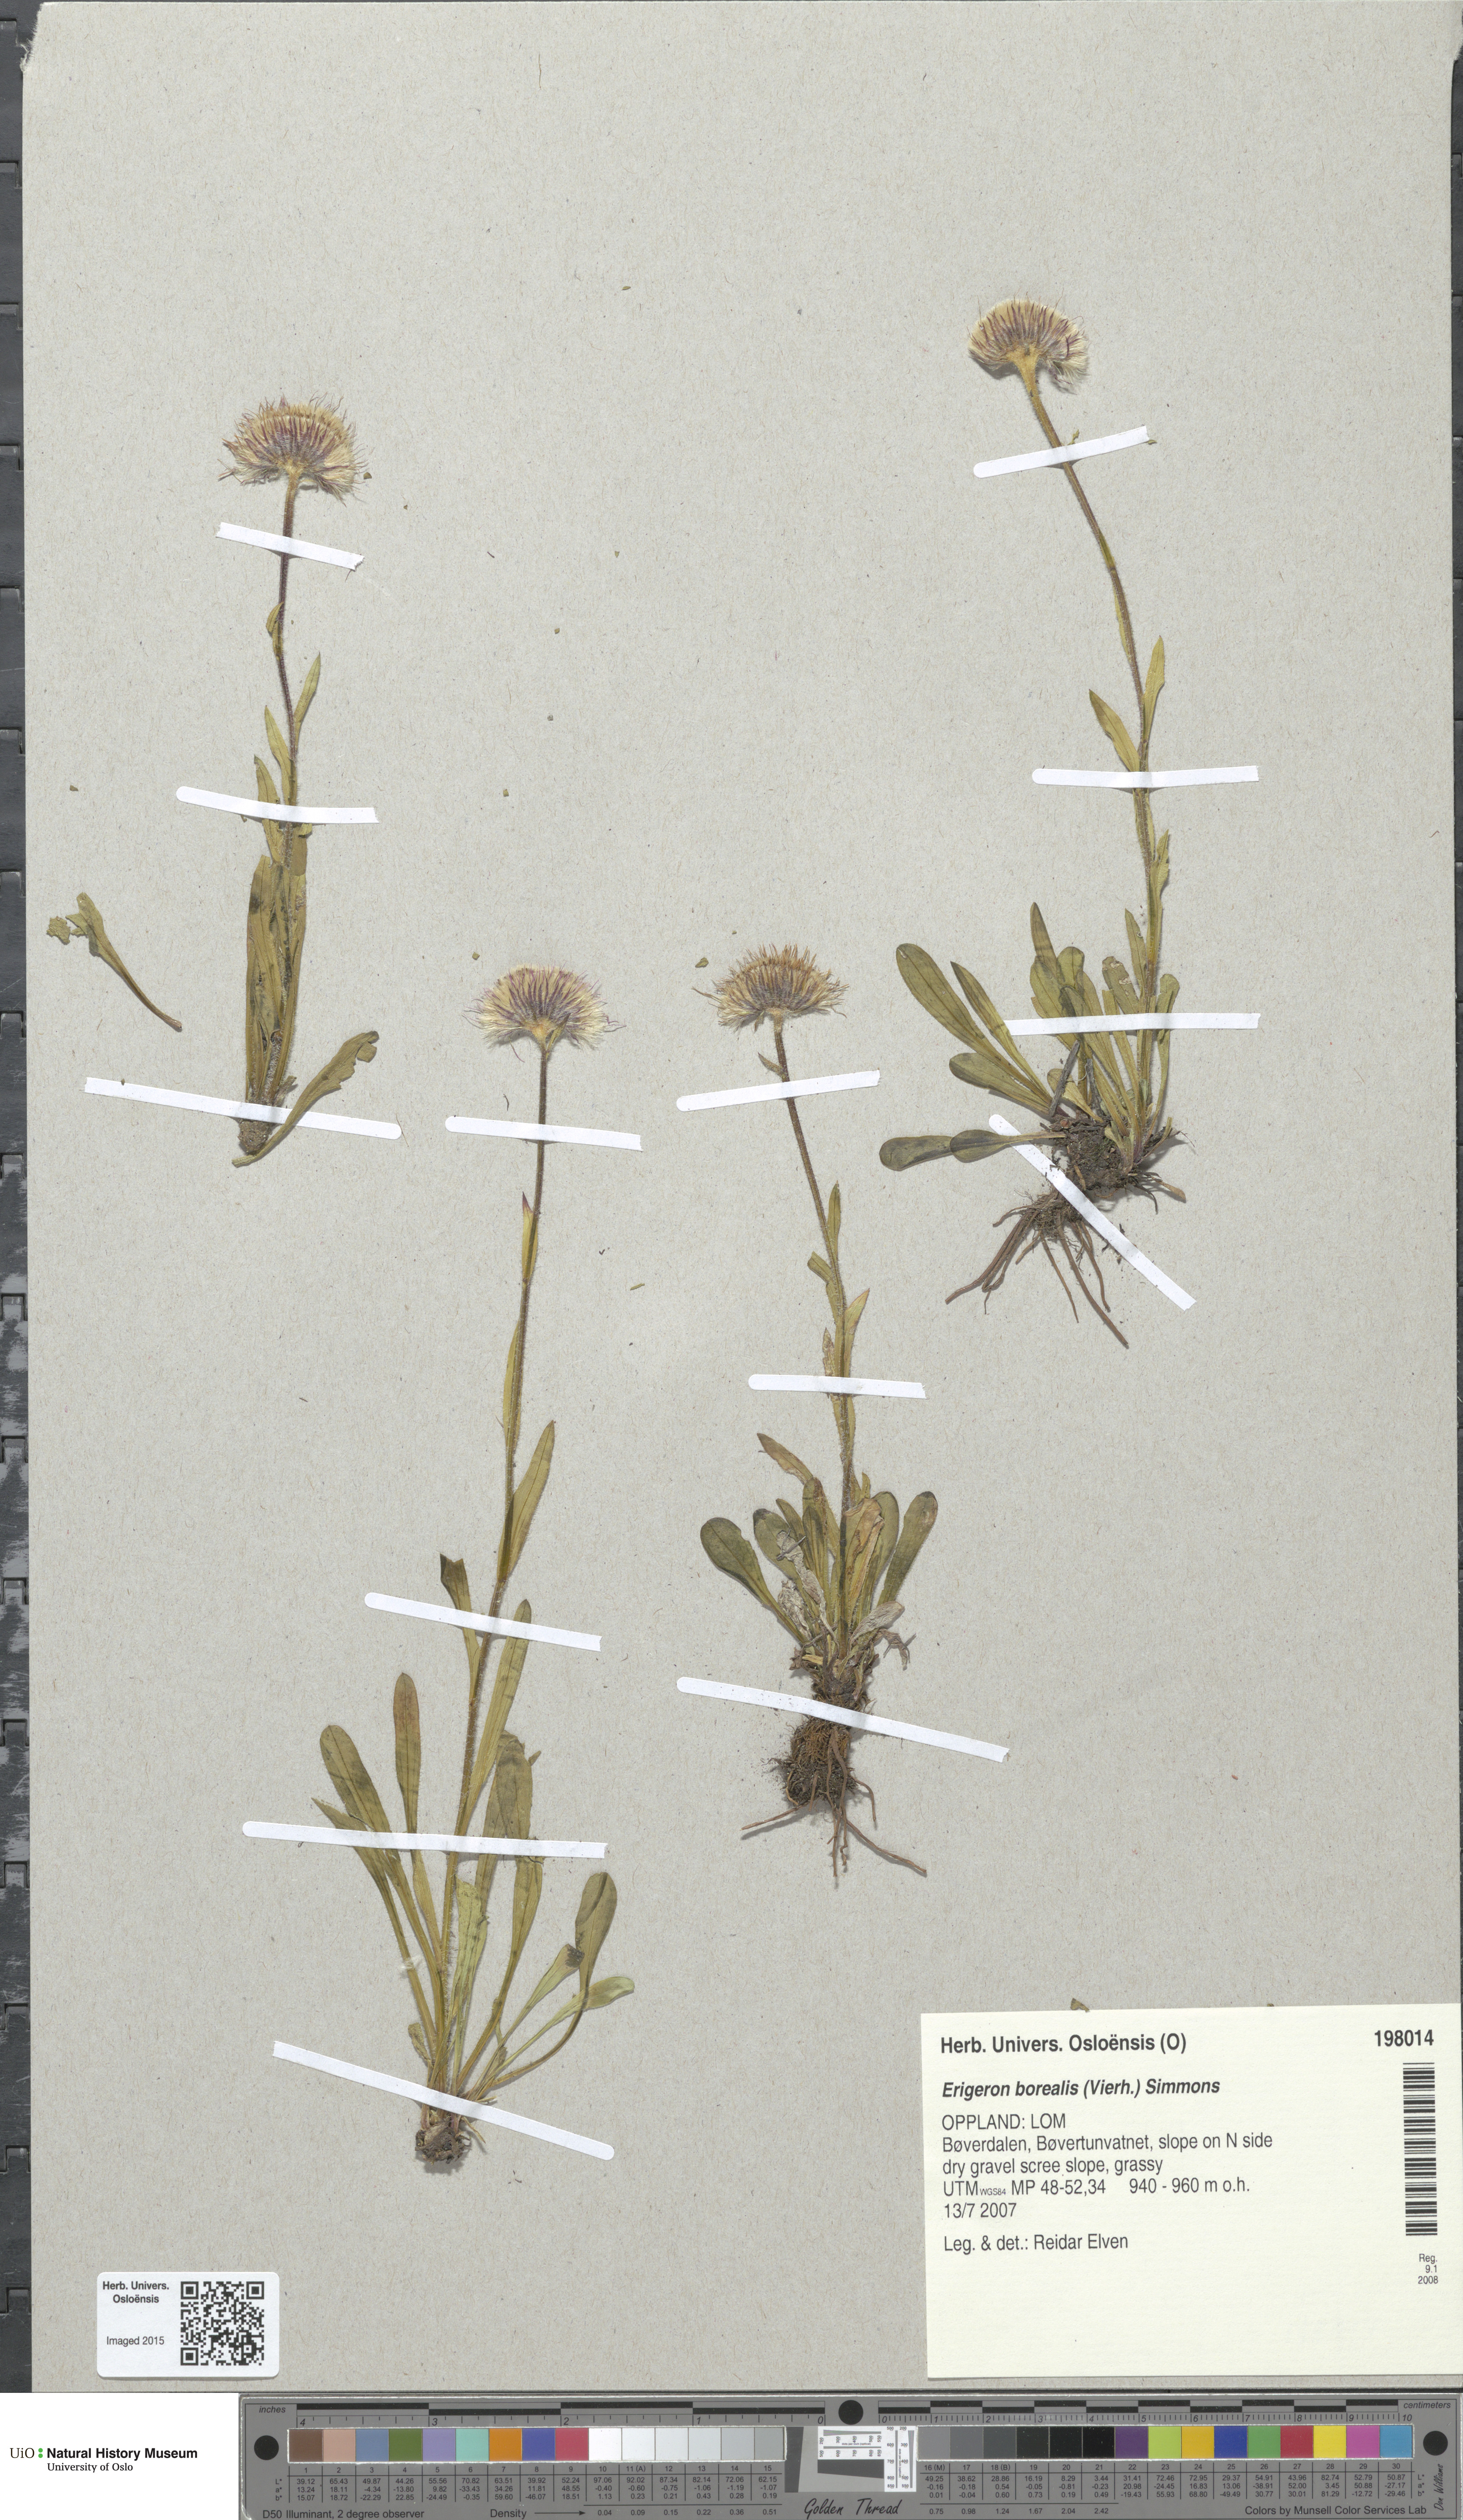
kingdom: Plantae
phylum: Tracheophyta
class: Magnoliopsida
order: Asterales
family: Asteraceae
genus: Erigeron
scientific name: Erigeron borealis
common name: Alpine fleabane
